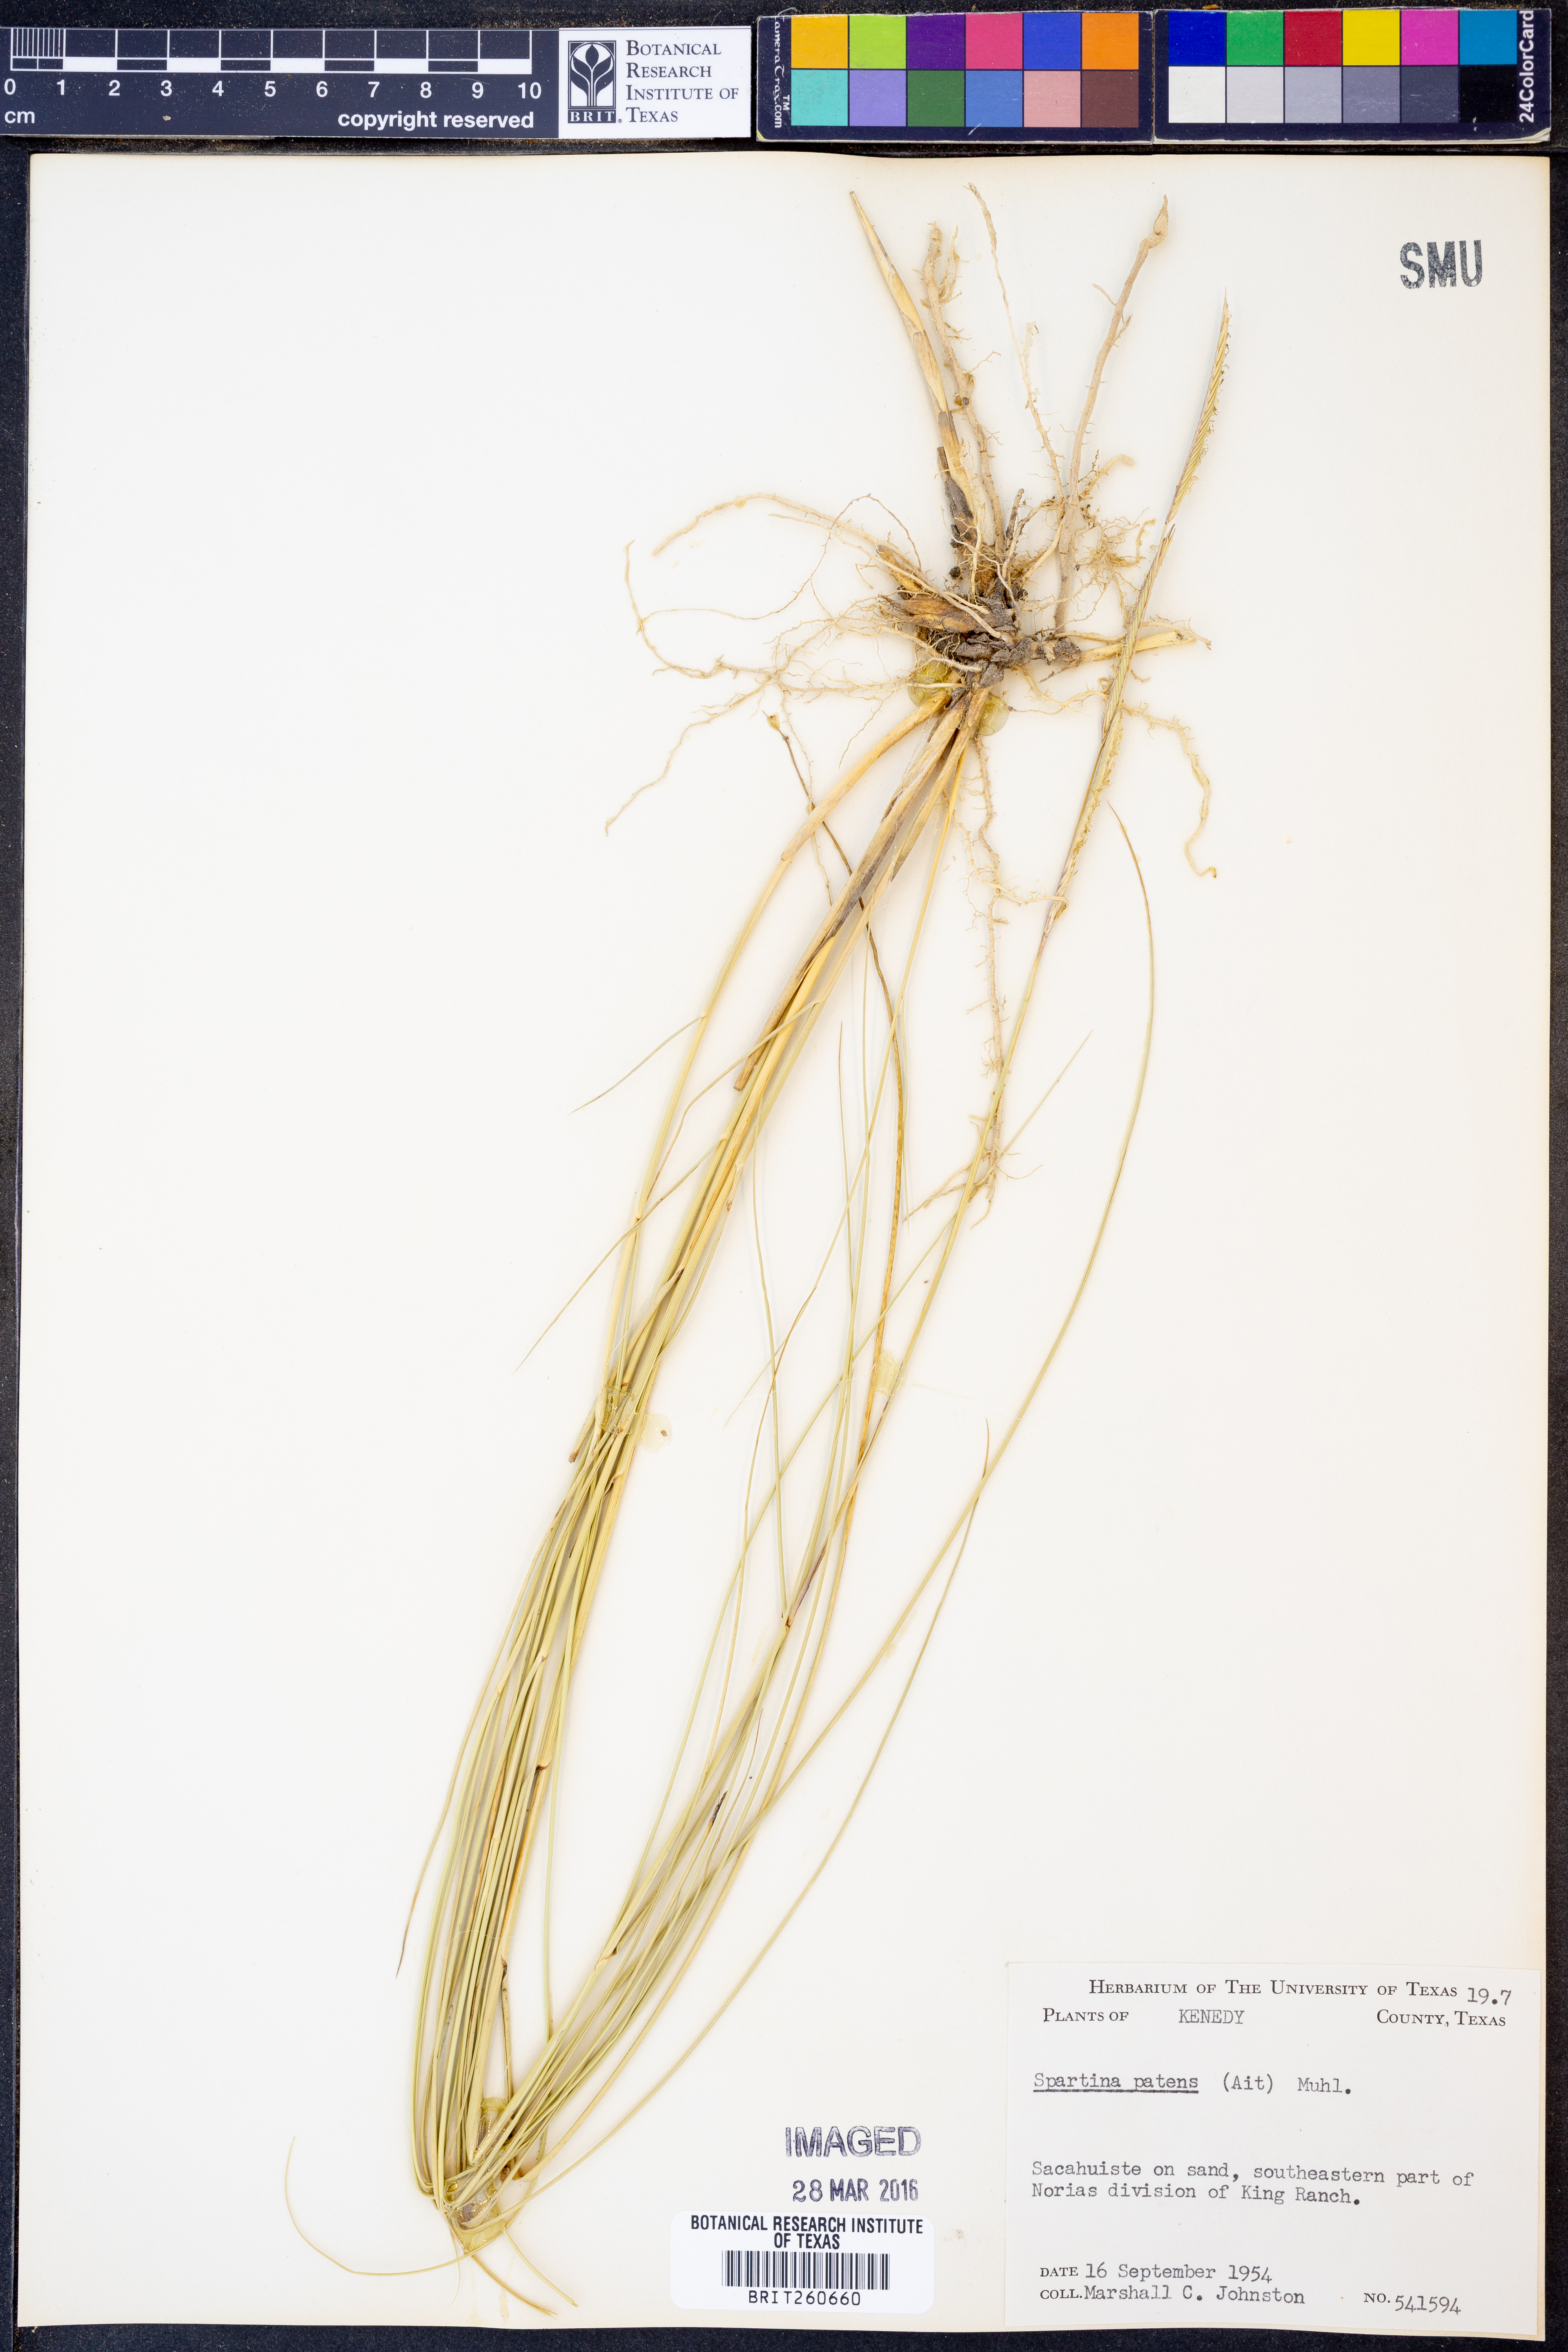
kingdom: Plantae
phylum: Tracheophyta
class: Liliopsida
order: Poales
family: Poaceae
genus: Sporobolus
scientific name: Sporobolus pumilus
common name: Highwater grass
